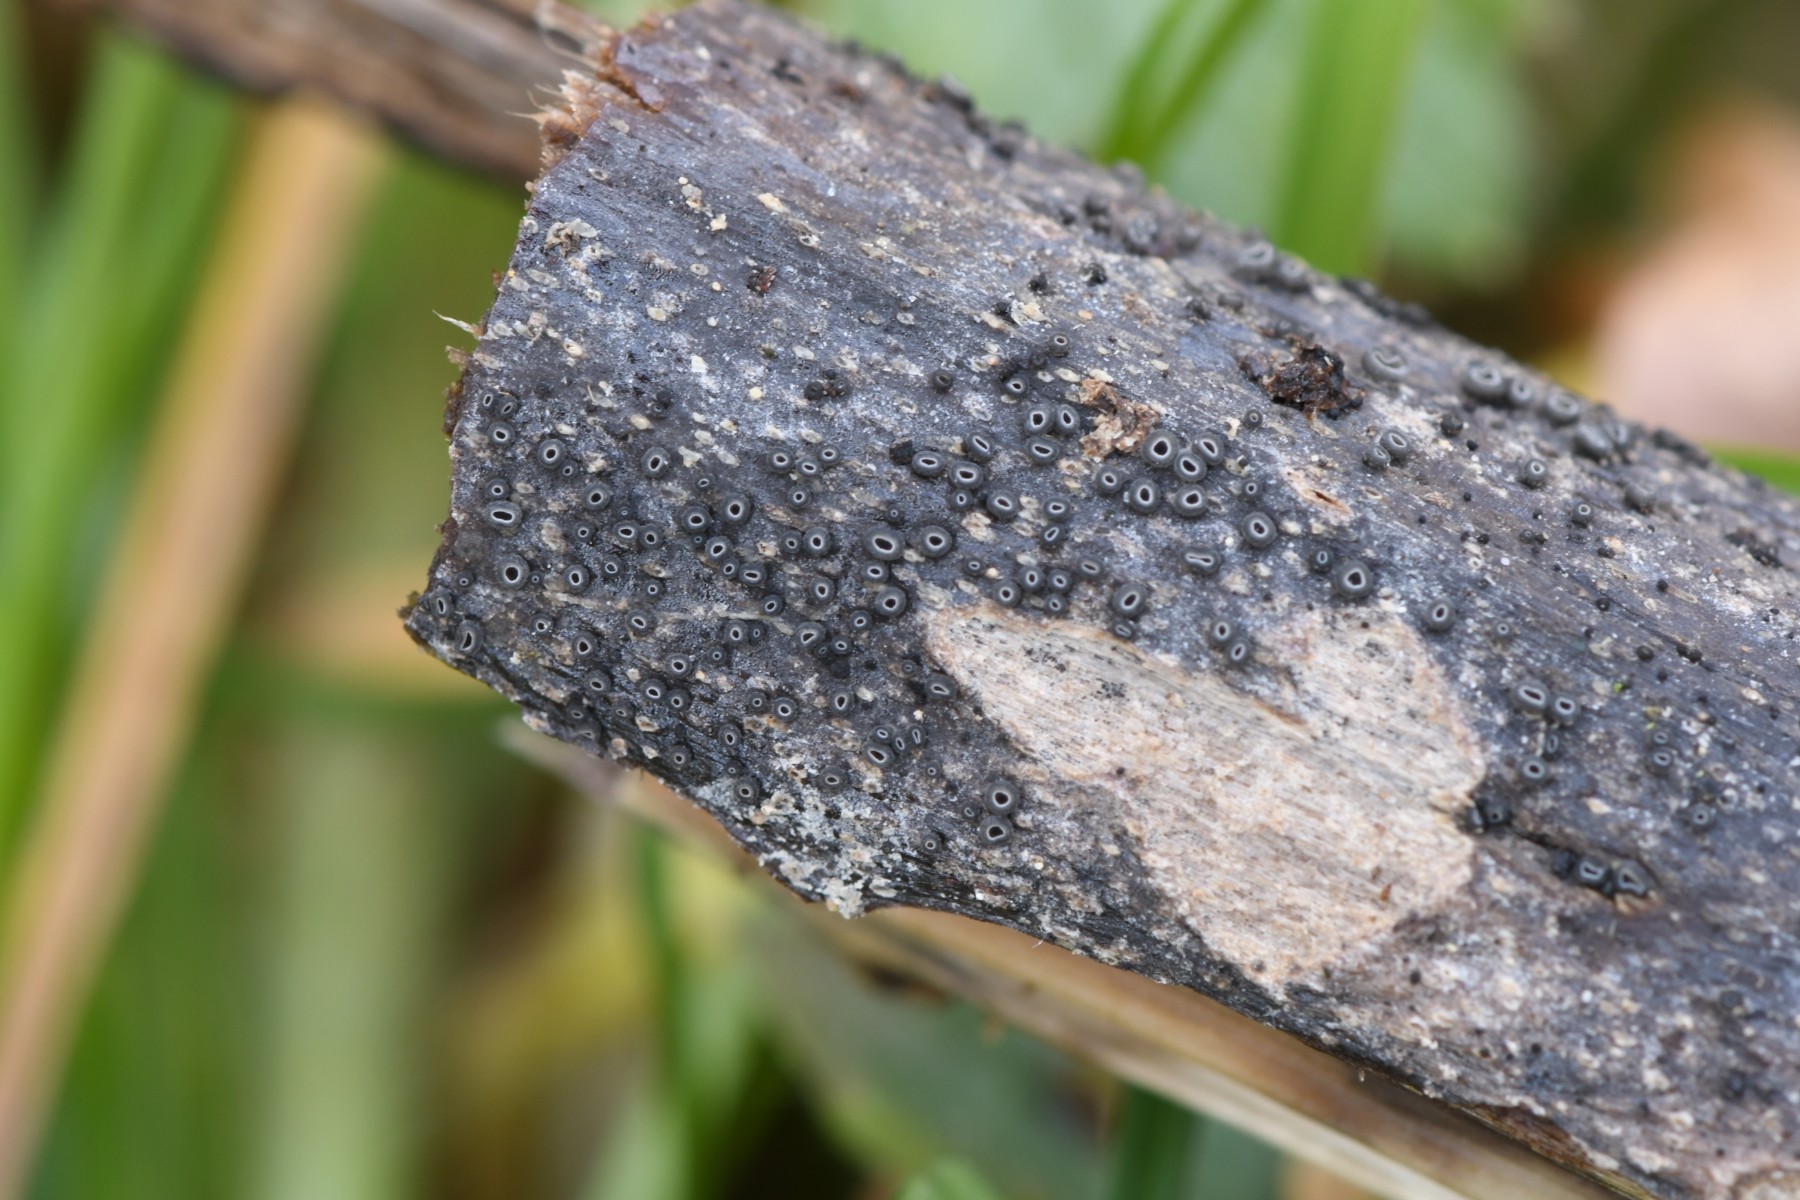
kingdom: Fungi
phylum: Ascomycota
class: Leotiomycetes
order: Helotiales
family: Ploettnerulaceae
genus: Pyrenopeziza
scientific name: Pyrenopeziza
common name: kerneskive
